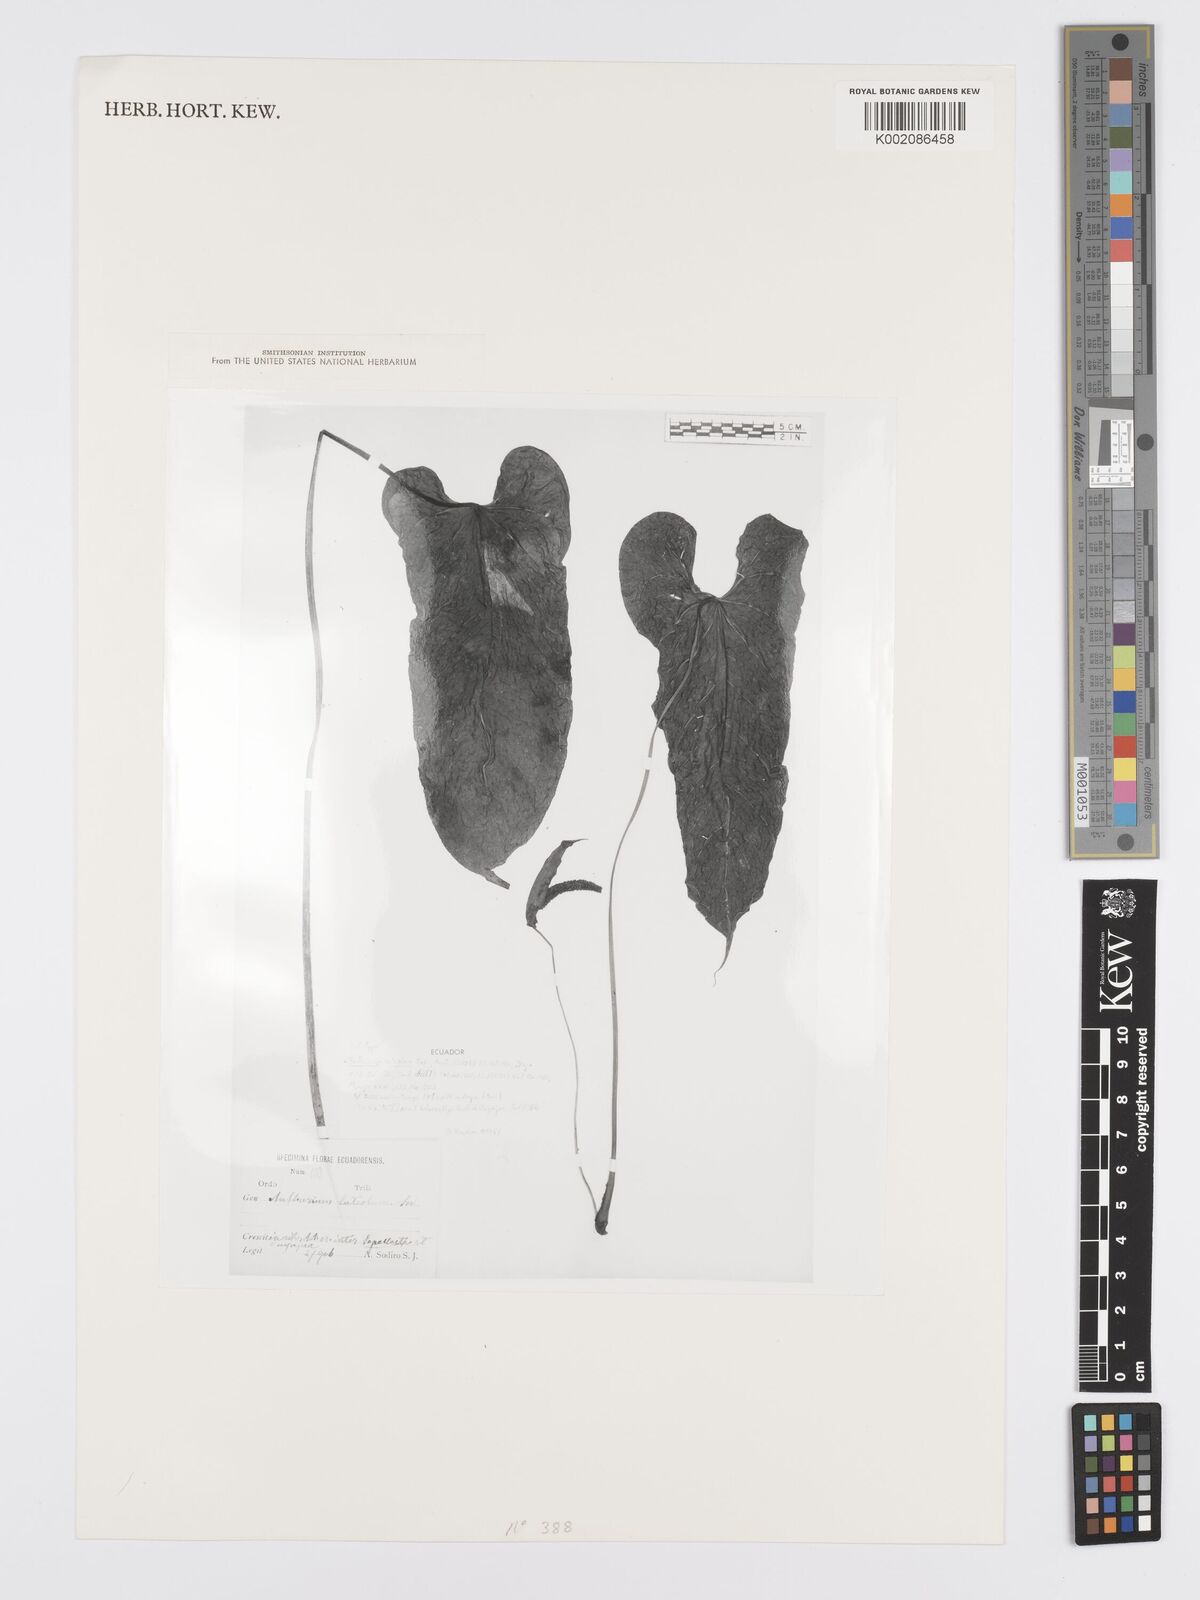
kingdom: Plantae
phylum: Tracheophyta
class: Liliopsida
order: Alismatales
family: Araceae
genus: Anthurium
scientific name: Anthurium oxybelium
